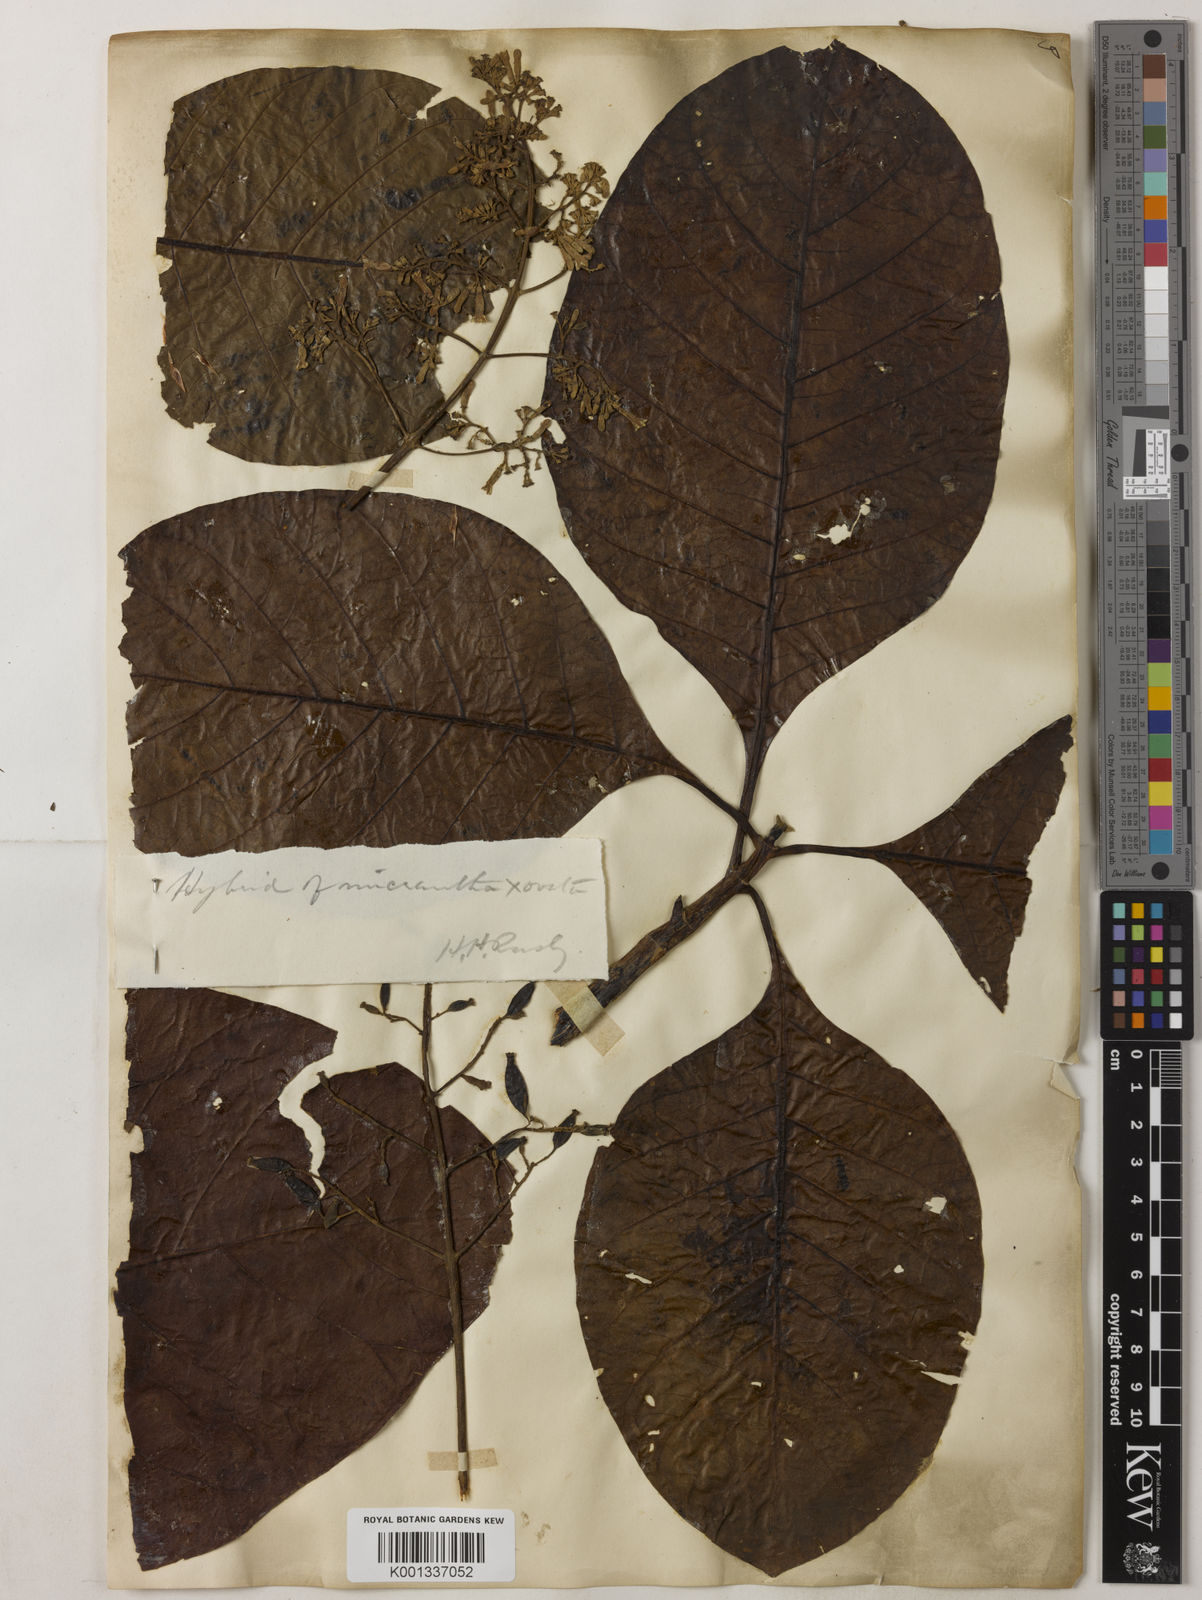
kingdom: Plantae
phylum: Tracheophyta
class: Magnoliopsida
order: Gentianales
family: Rubiaceae
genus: Cinchona
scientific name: Cinchona pubescens
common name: Quinine
